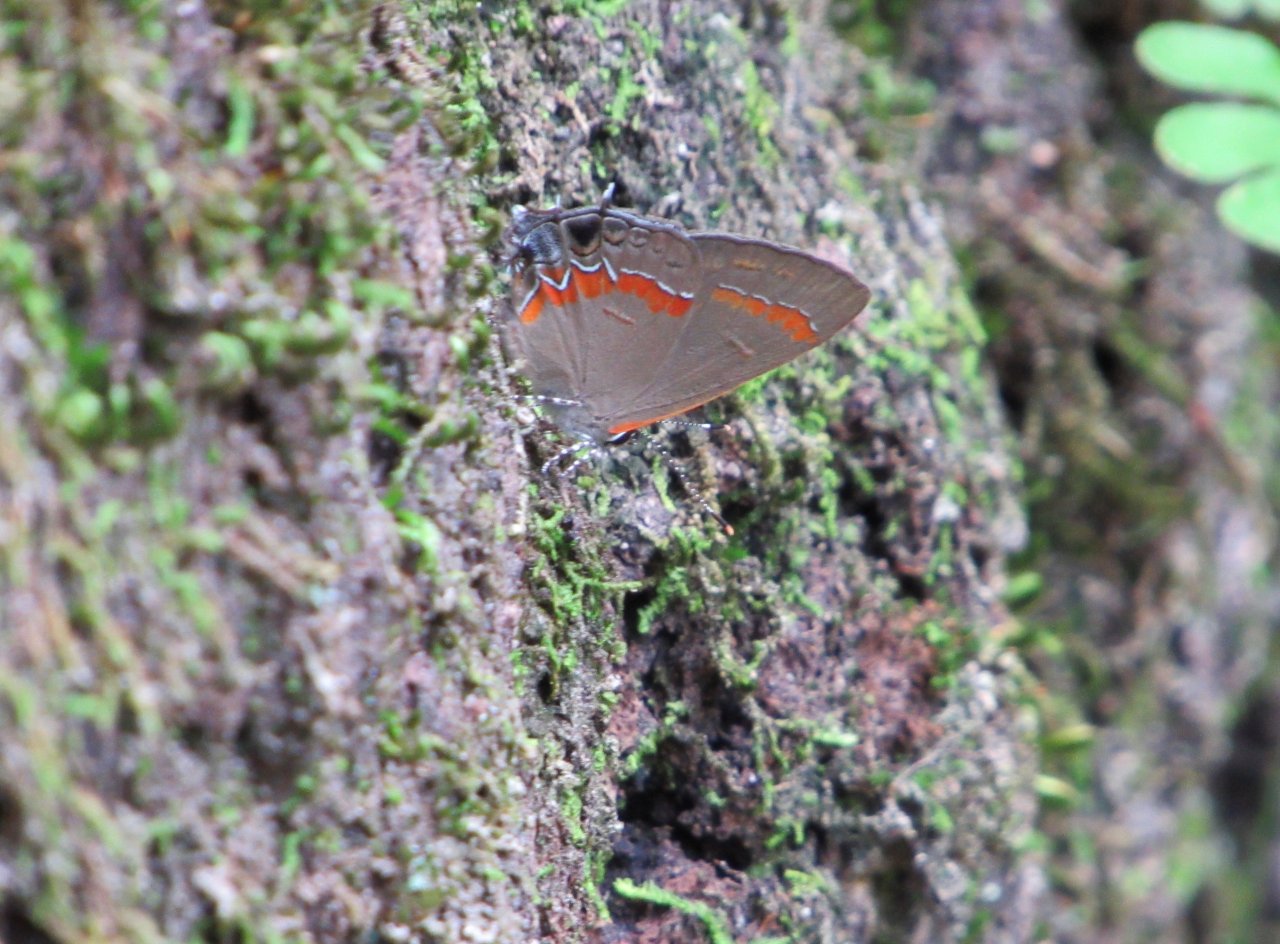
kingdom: Animalia
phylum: Arthropoda
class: Insecta
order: Lepidoptera
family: Lycaenidae
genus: Calycopis
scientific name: Calycopis cecrops
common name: Red-banded Hairstreak
